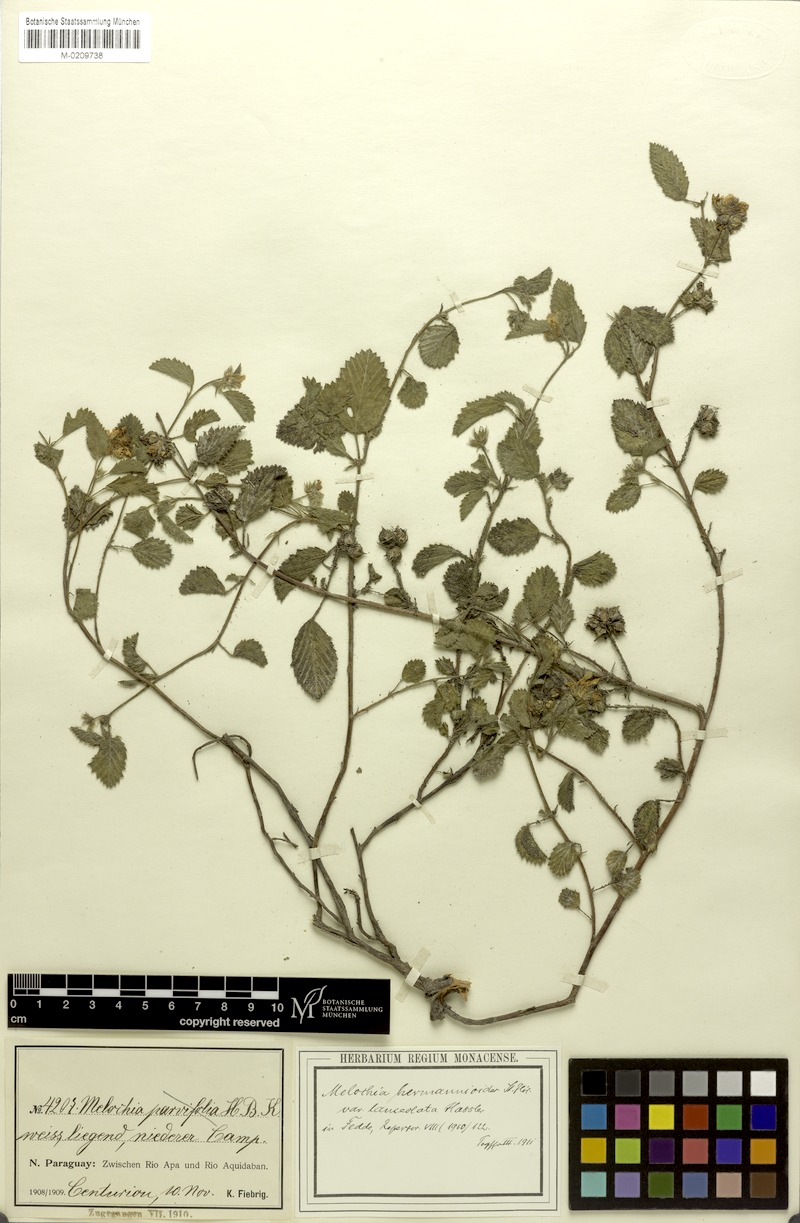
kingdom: Plantae
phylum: Tracheophyta
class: Magnoliopsida
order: Malvales
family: Malvaceae
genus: Melochia
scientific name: Melochia hermannioides
